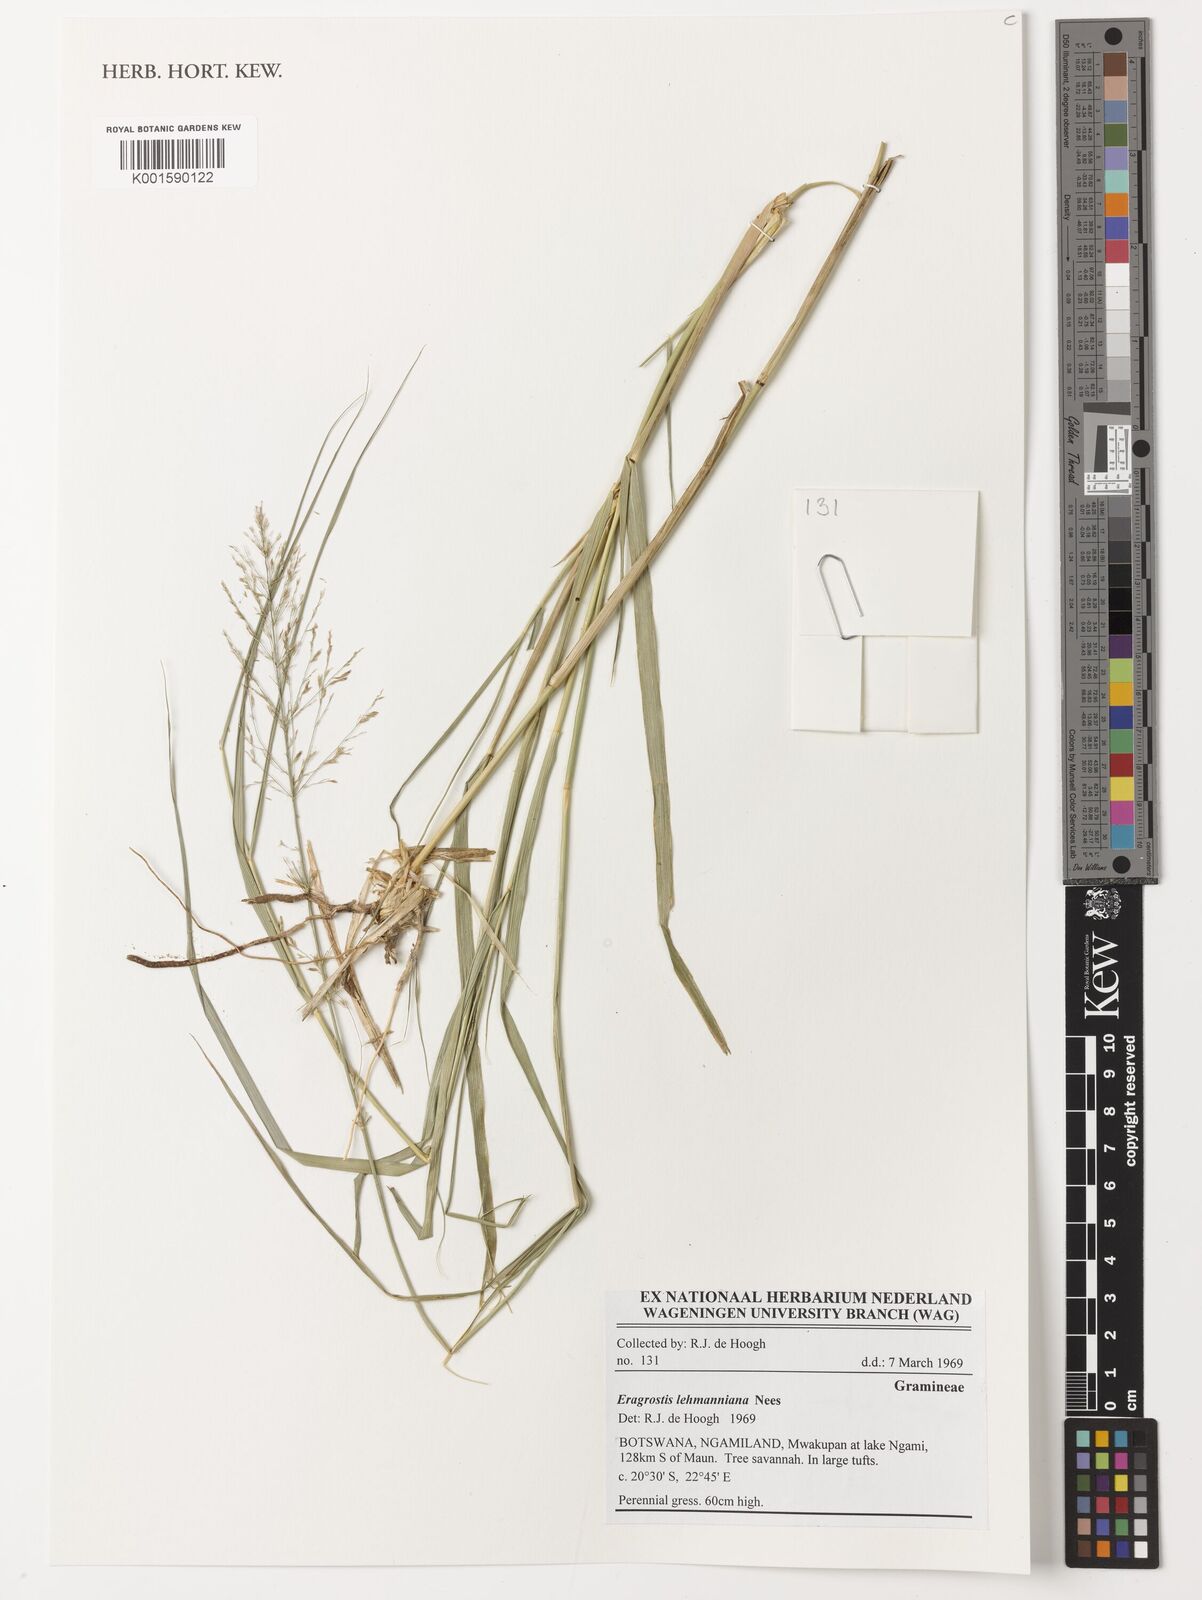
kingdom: Plantae
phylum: Tracheophyta
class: Liliopsida
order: Poales
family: Poaceae
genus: Eragrostis
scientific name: Eragrostis lehmanniana
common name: Lehmann lovegrass
